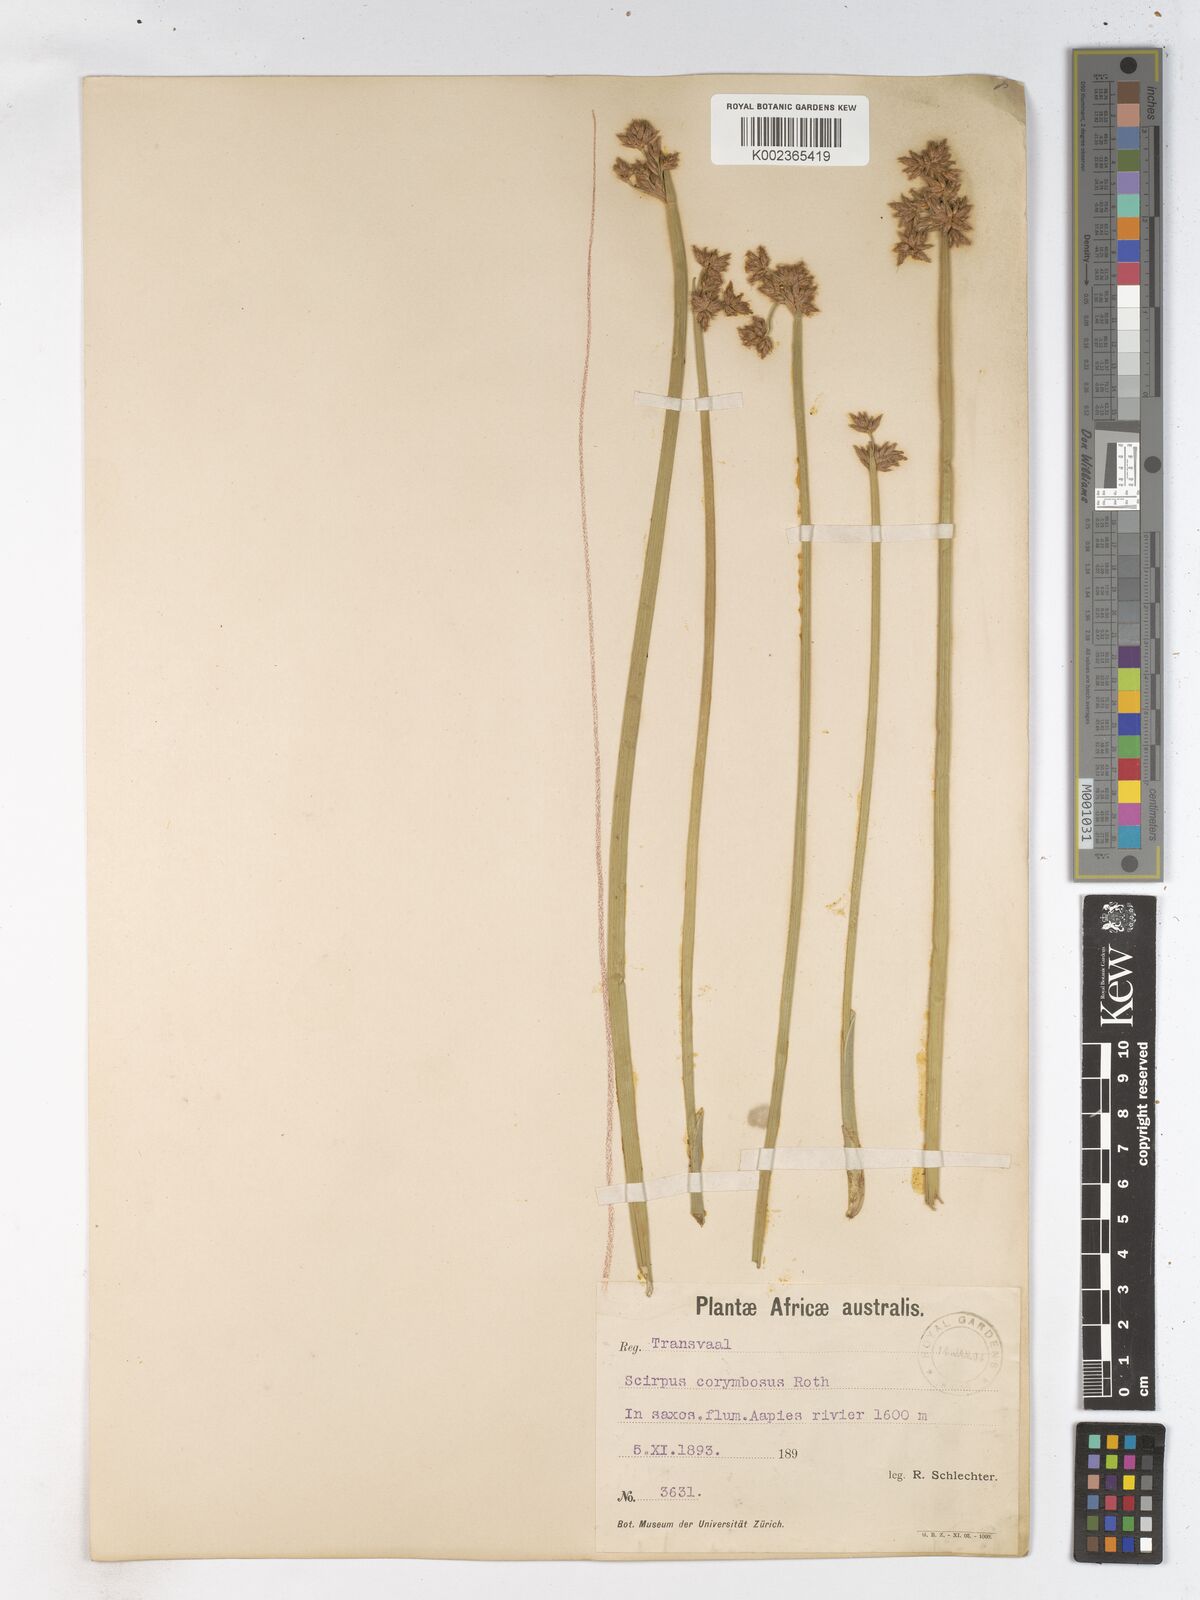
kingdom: Plantae
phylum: Tracheophyta
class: Liliopsida
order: Poales
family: Cyperaceae
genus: Schoenoplectiella
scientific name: Schoenoplectiella brachyceras
